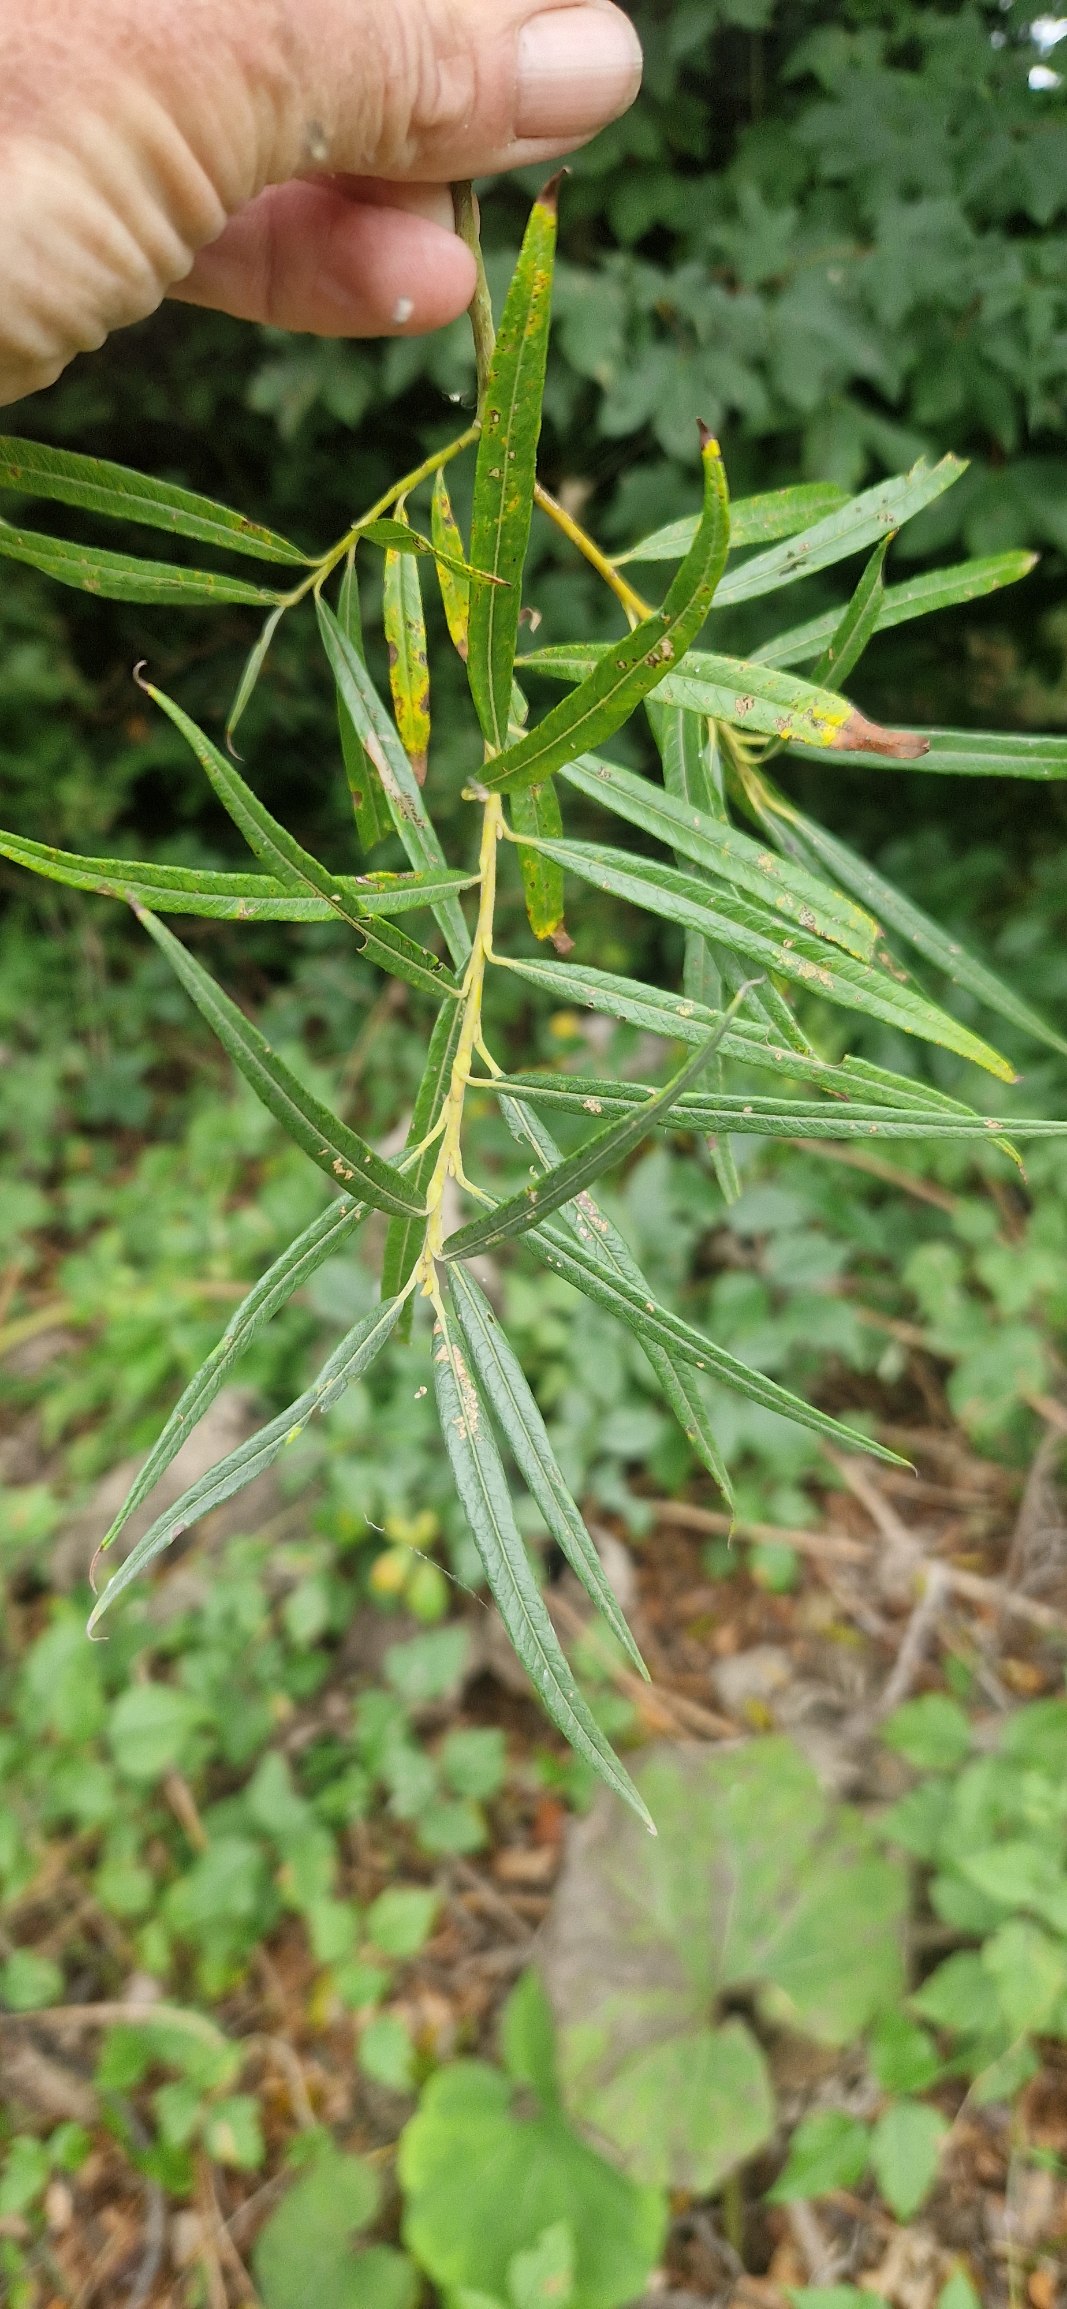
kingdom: Plantae
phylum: Tracheophyta
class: Magnoliopsida
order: Malpighiales
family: Salicaceae
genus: Salix
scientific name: Salix viminalis
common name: Bånd-pil
